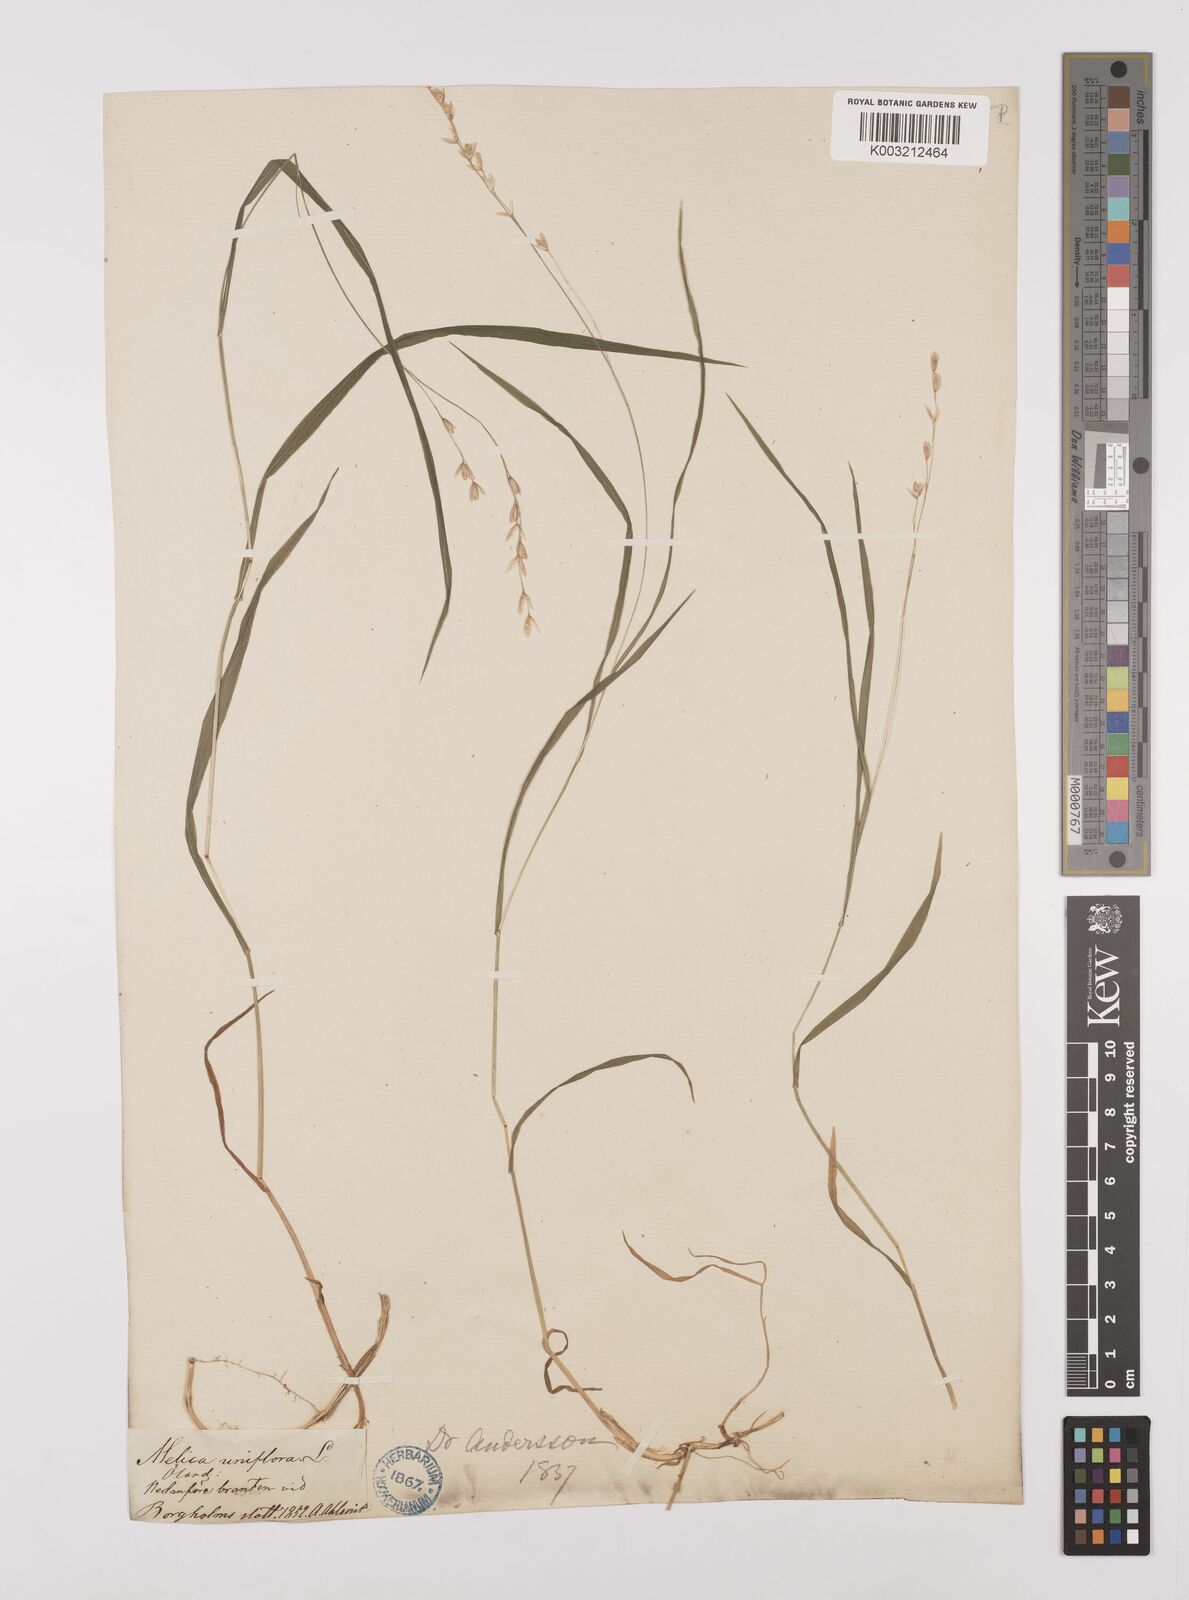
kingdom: Plantae
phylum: Tracheophyta
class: Liliopsida
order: Poales
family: Poaceae
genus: Melica
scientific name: Melica uniflora
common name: Wood melick
